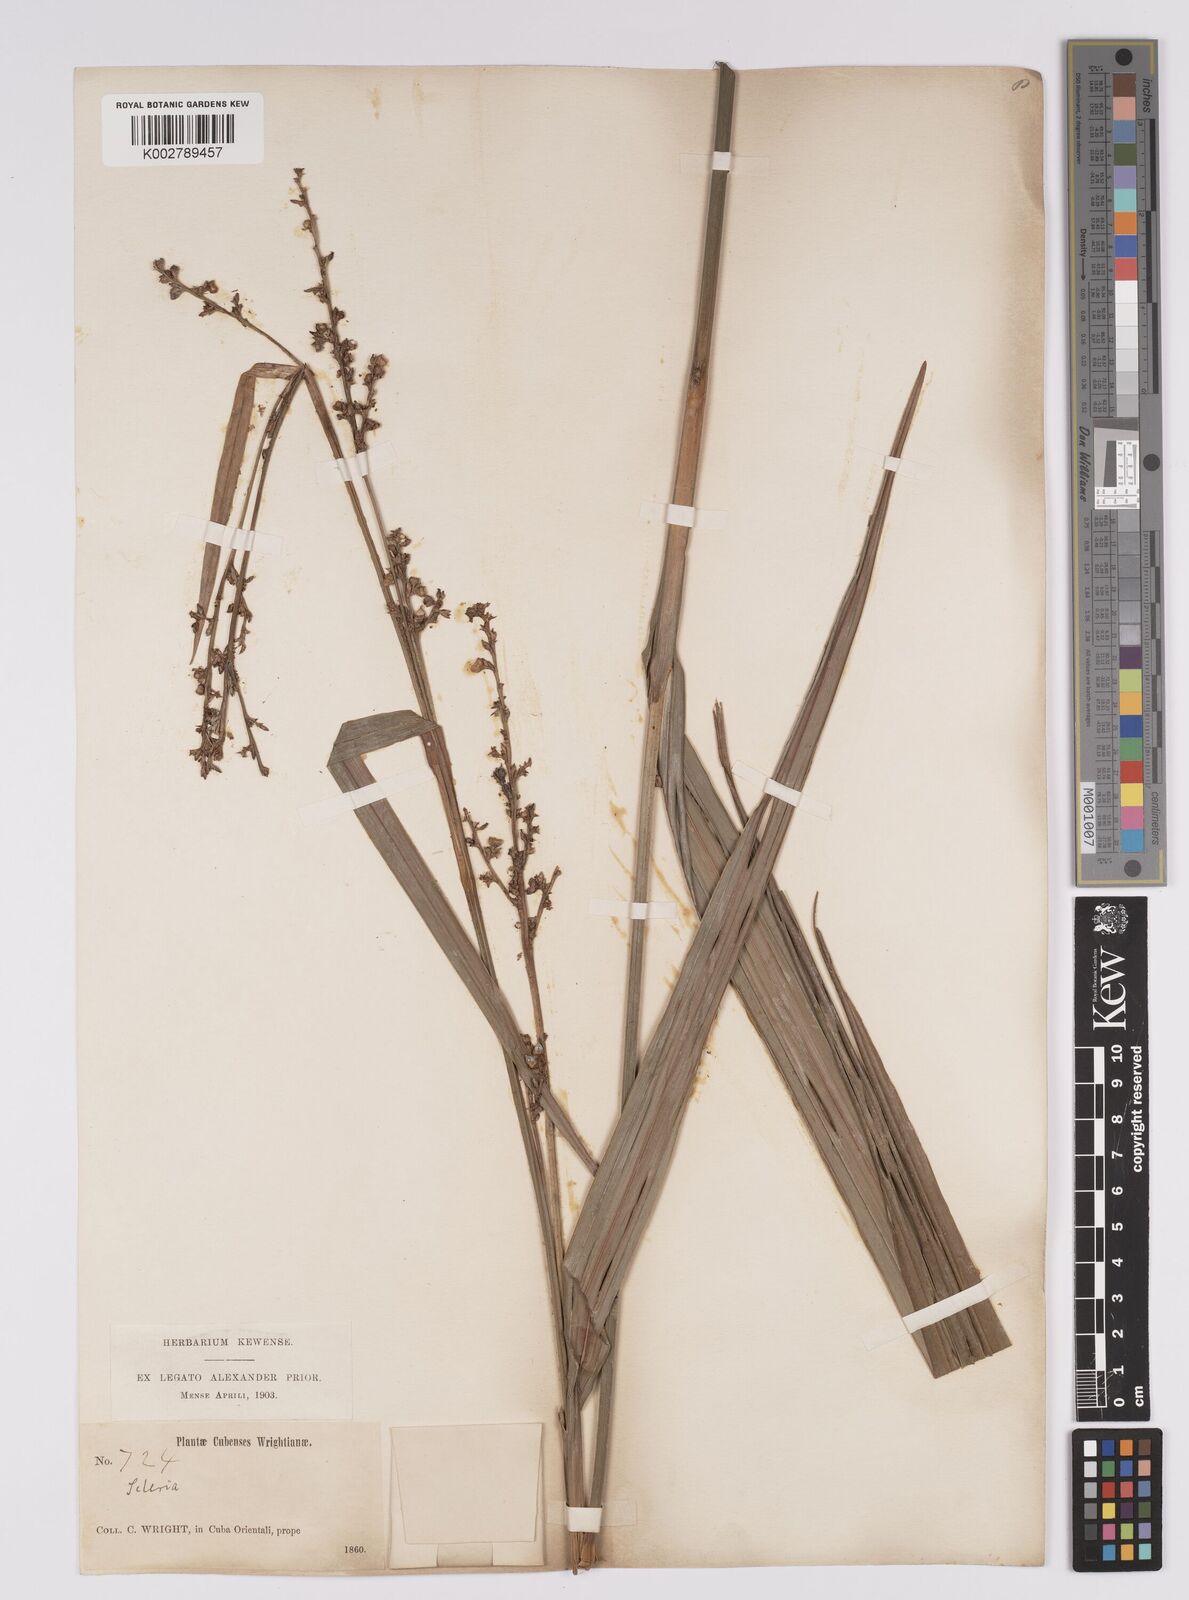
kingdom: Plantae
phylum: Tracheophyta
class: Liliopsida
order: Poales
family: Cyperaceae
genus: Scleria
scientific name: Scleria microcarpa
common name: Tropical nutrush
